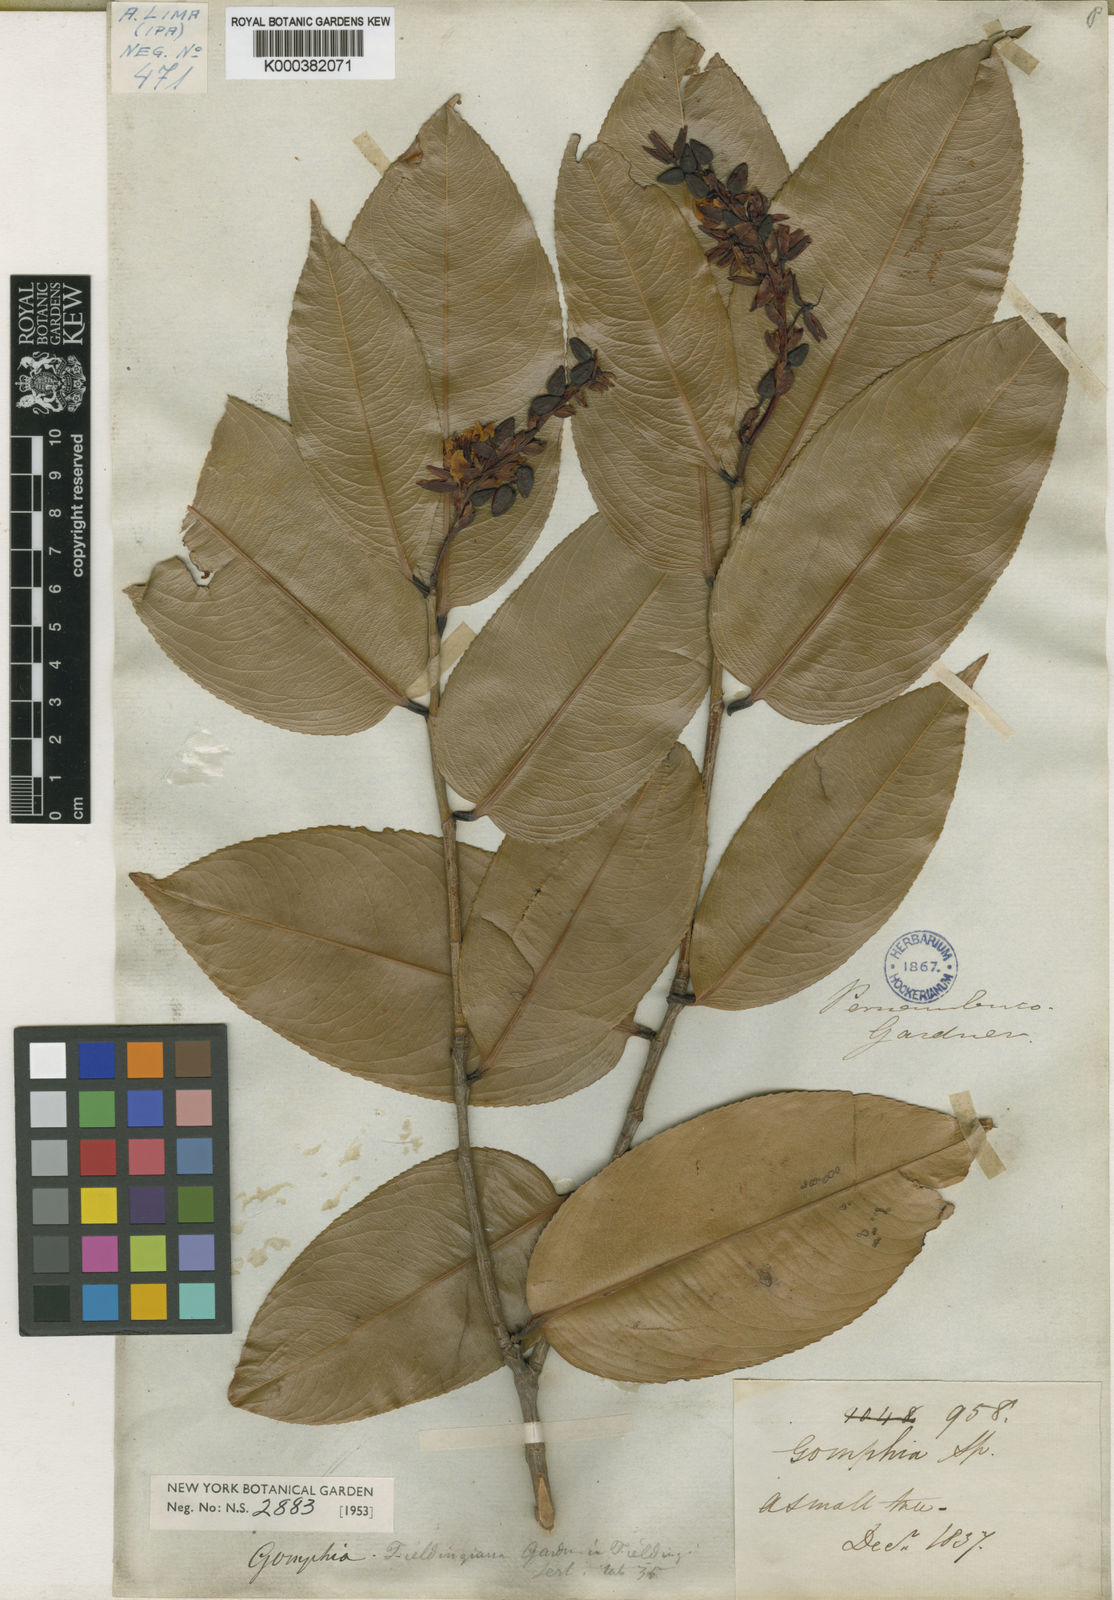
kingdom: Plantae
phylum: Tracheophyta
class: Magnoliopsida
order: Malpighiales
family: Ochnaceae
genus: Ouratea
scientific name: Ouratea fieldingiana
